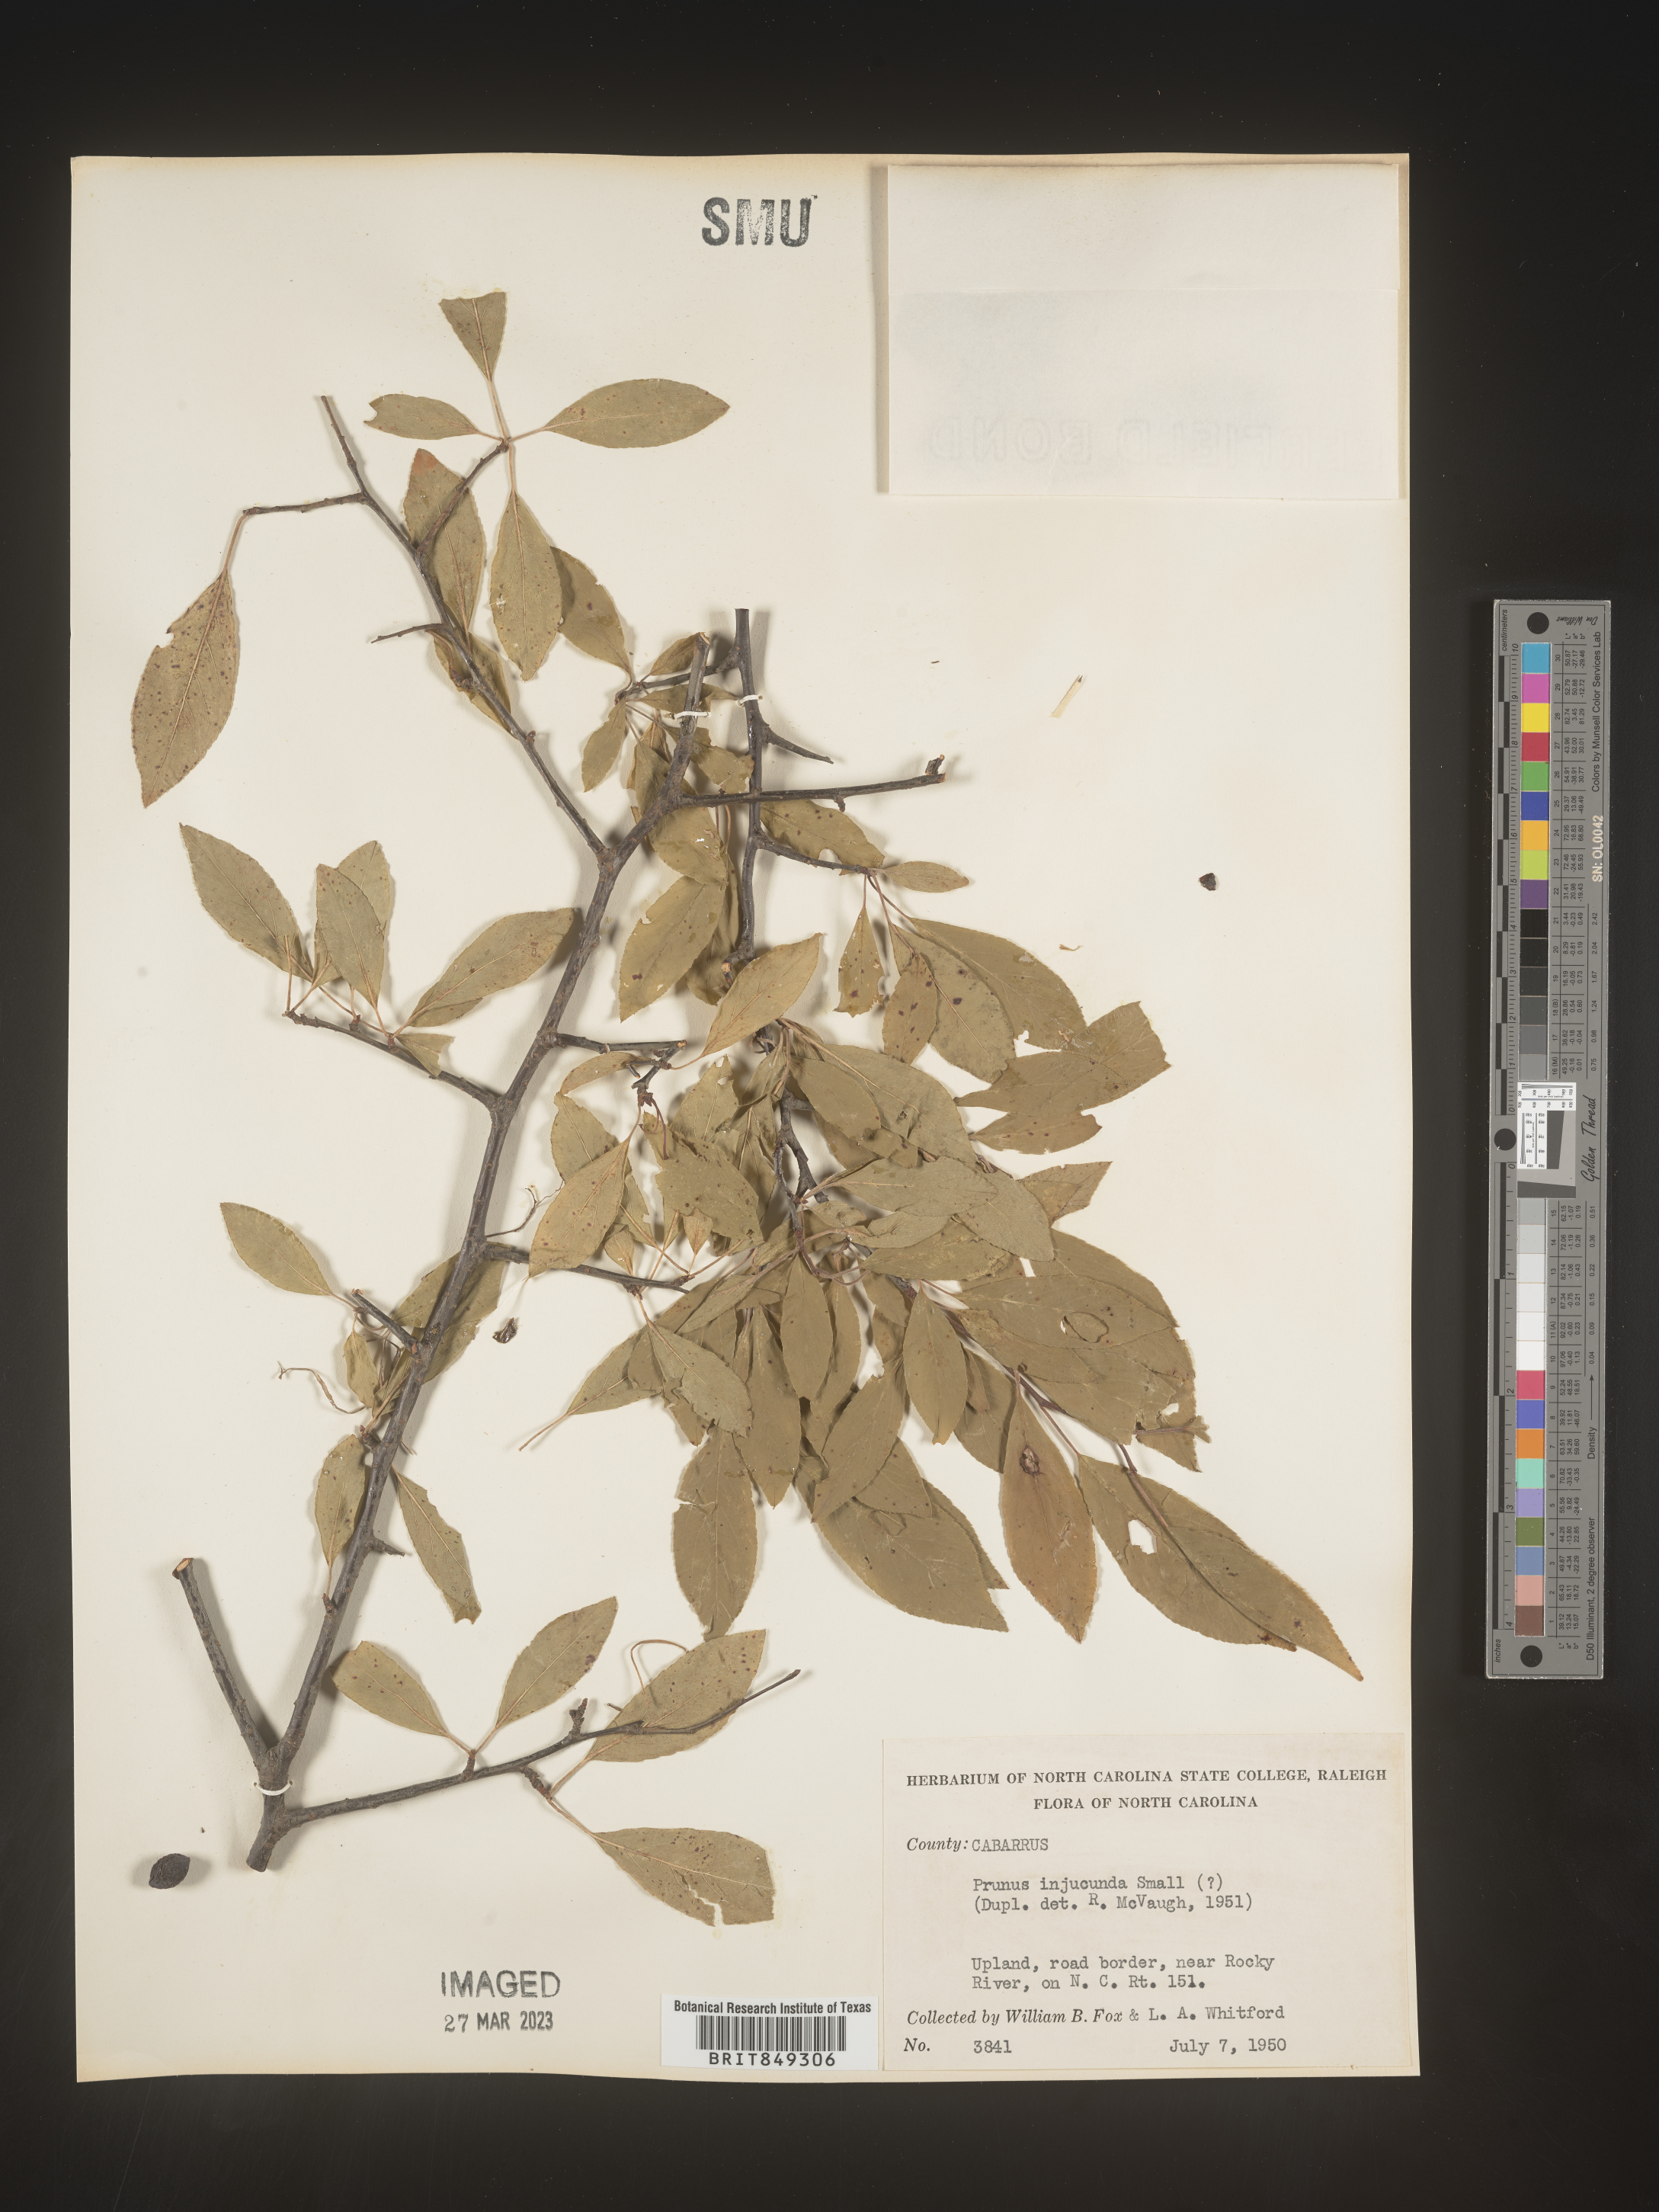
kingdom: Plantae
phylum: Tracheophyta
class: Magnoliopsida
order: Rosales
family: Rosaceae
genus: Prunus
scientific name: Prunus
